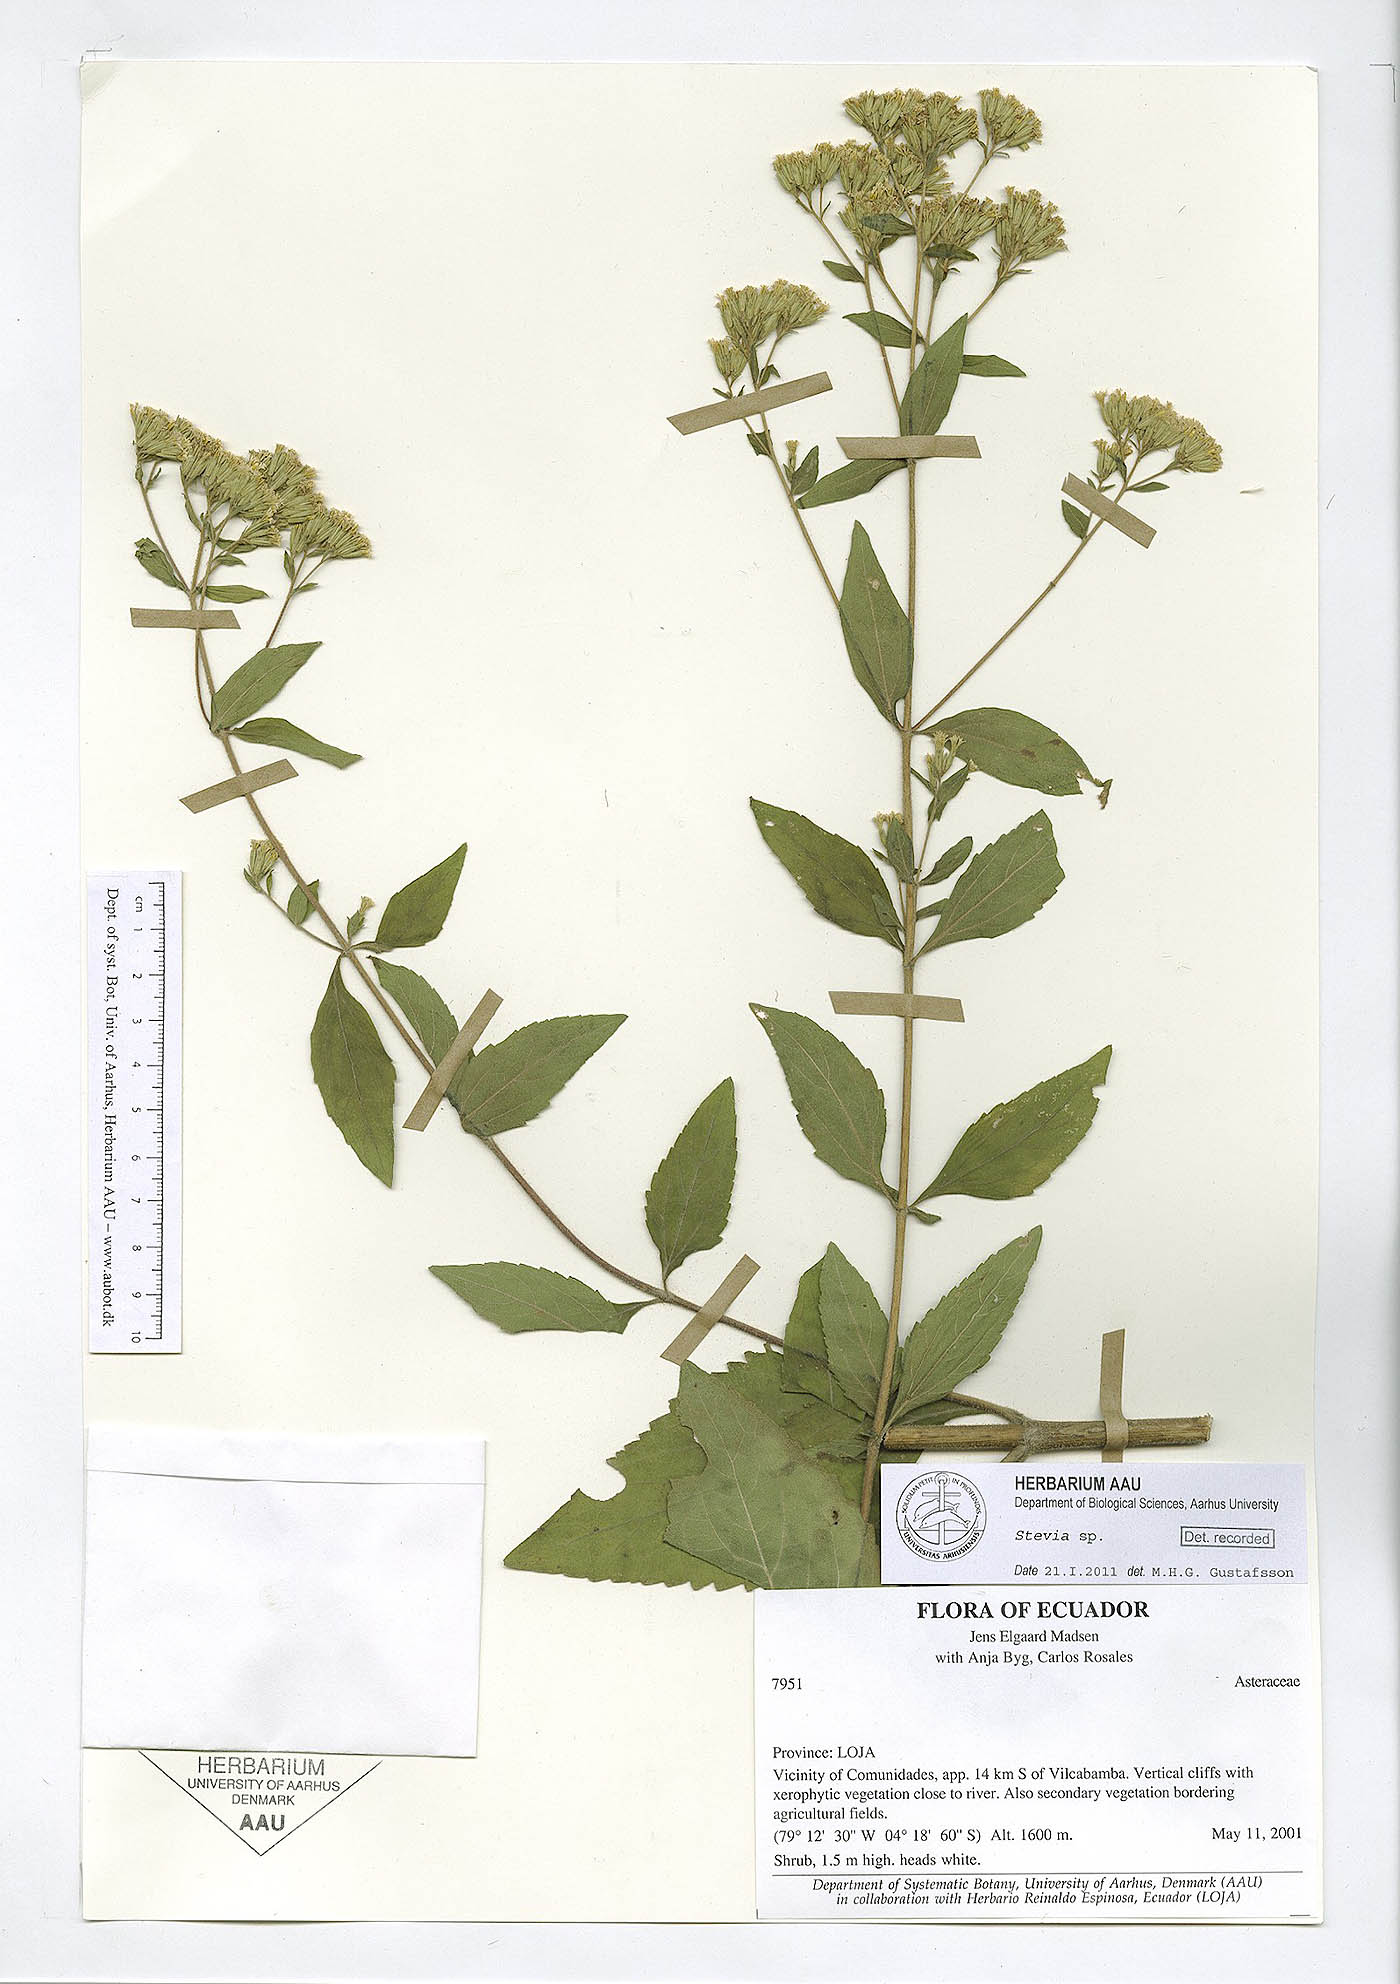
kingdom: Plantae
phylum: Tracheophyta
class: Magnoliopsida
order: Asterales
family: Asteraceae
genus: Stevia
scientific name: Stevia
